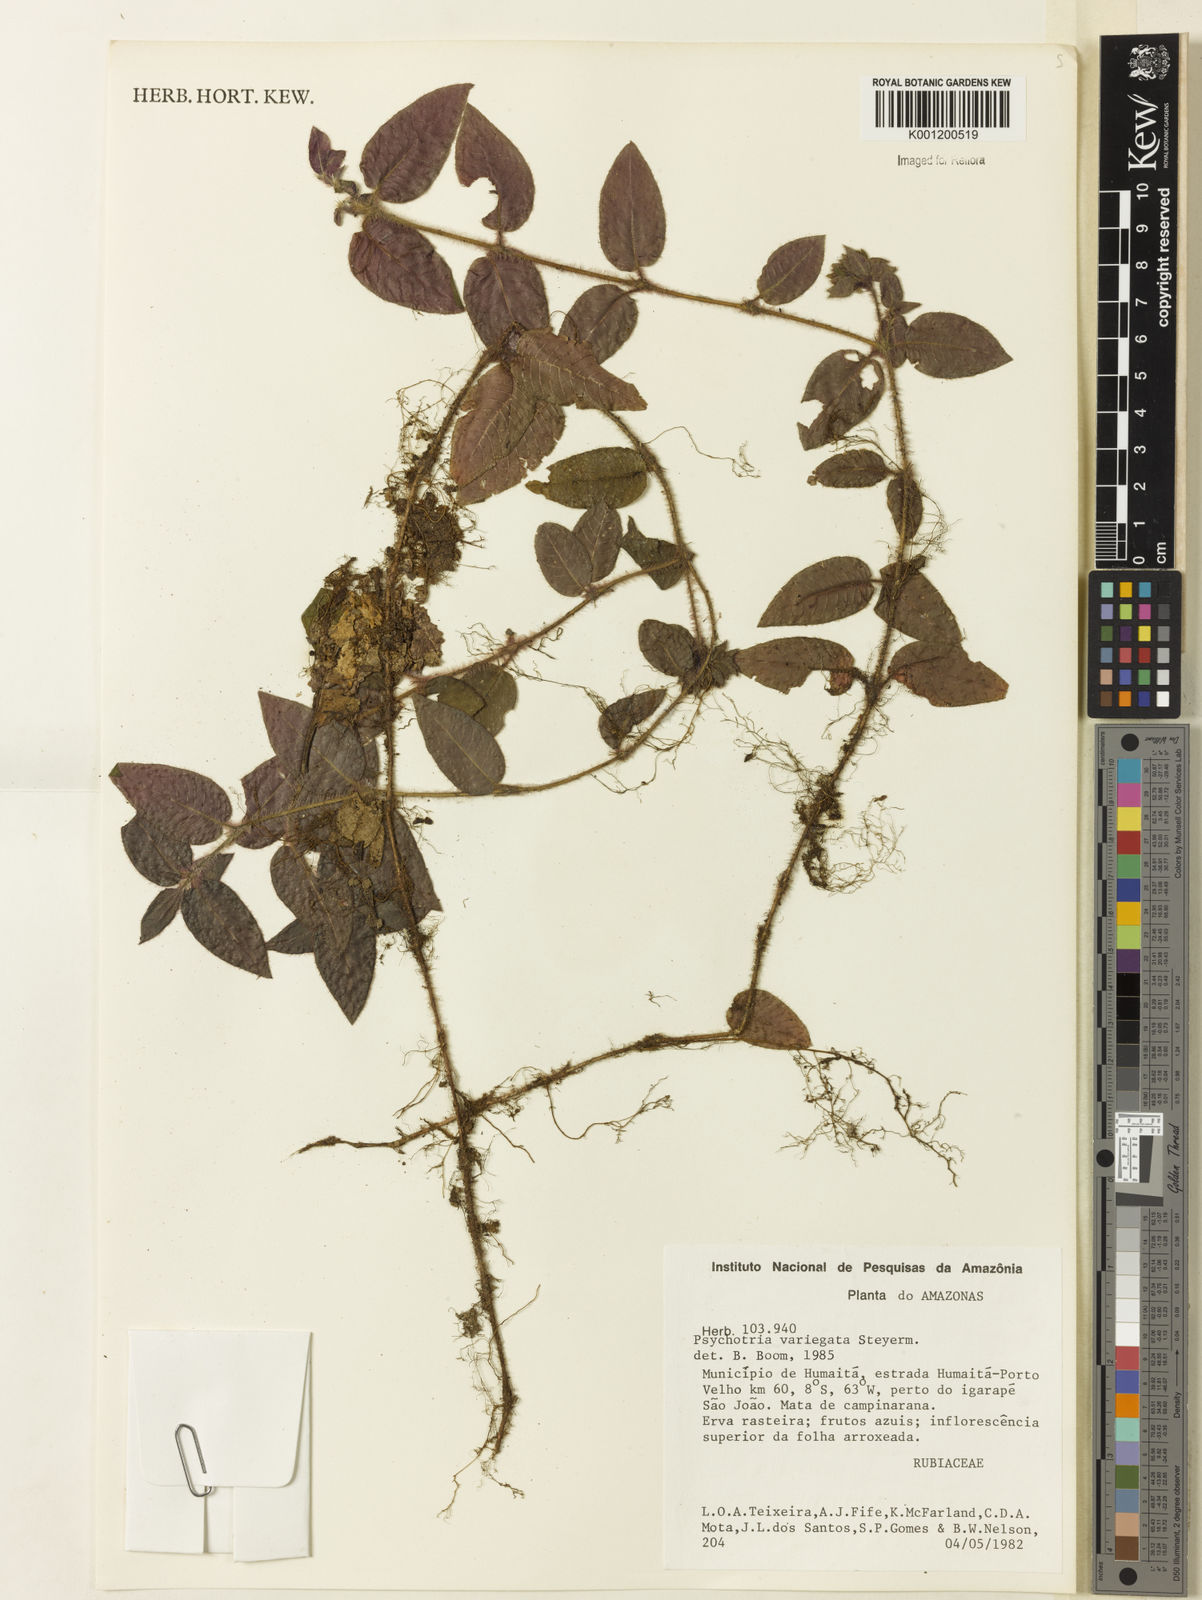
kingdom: Plantae
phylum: Tracheophyta
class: Magnoliopsida
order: Gentianales
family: Rubiaceae
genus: Palicourea
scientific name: Palicourea debilis
